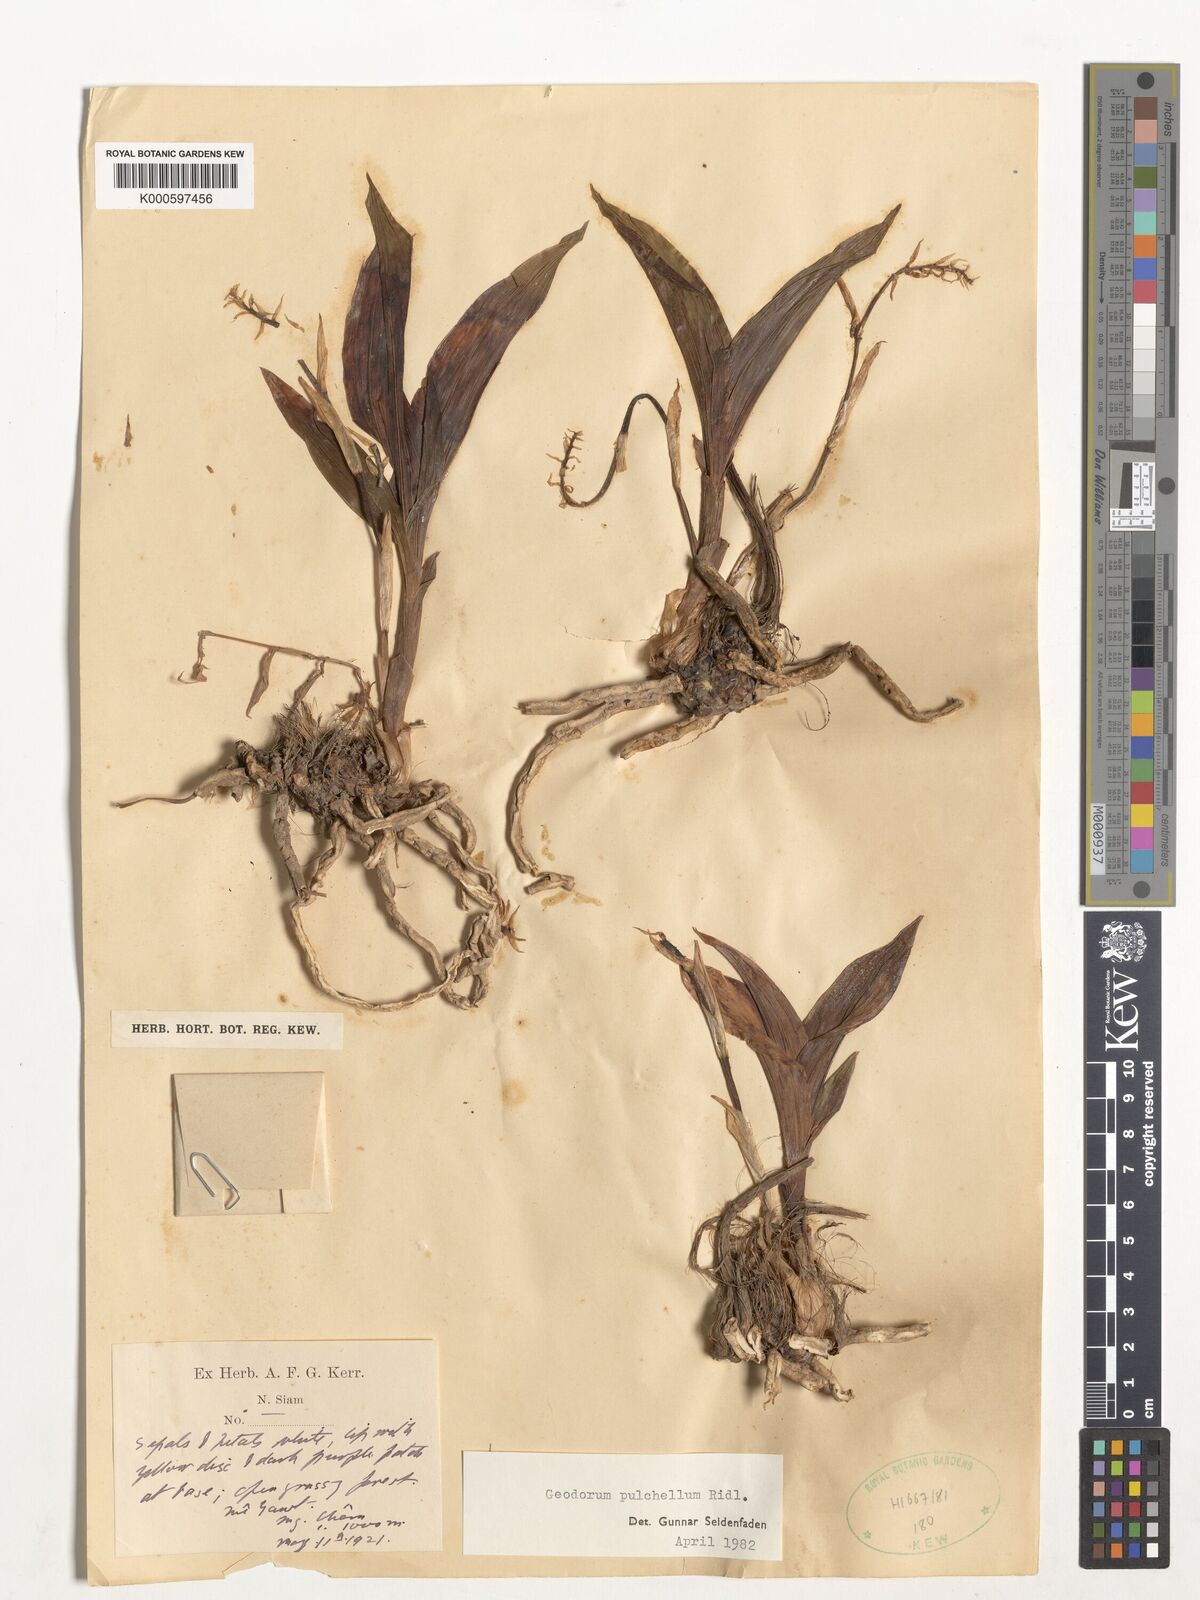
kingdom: Plantae
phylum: Tracheophyta
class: Liliopsida
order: Asparagales
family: Orchidaceae
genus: Eulophia
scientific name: Eulophia recurva
